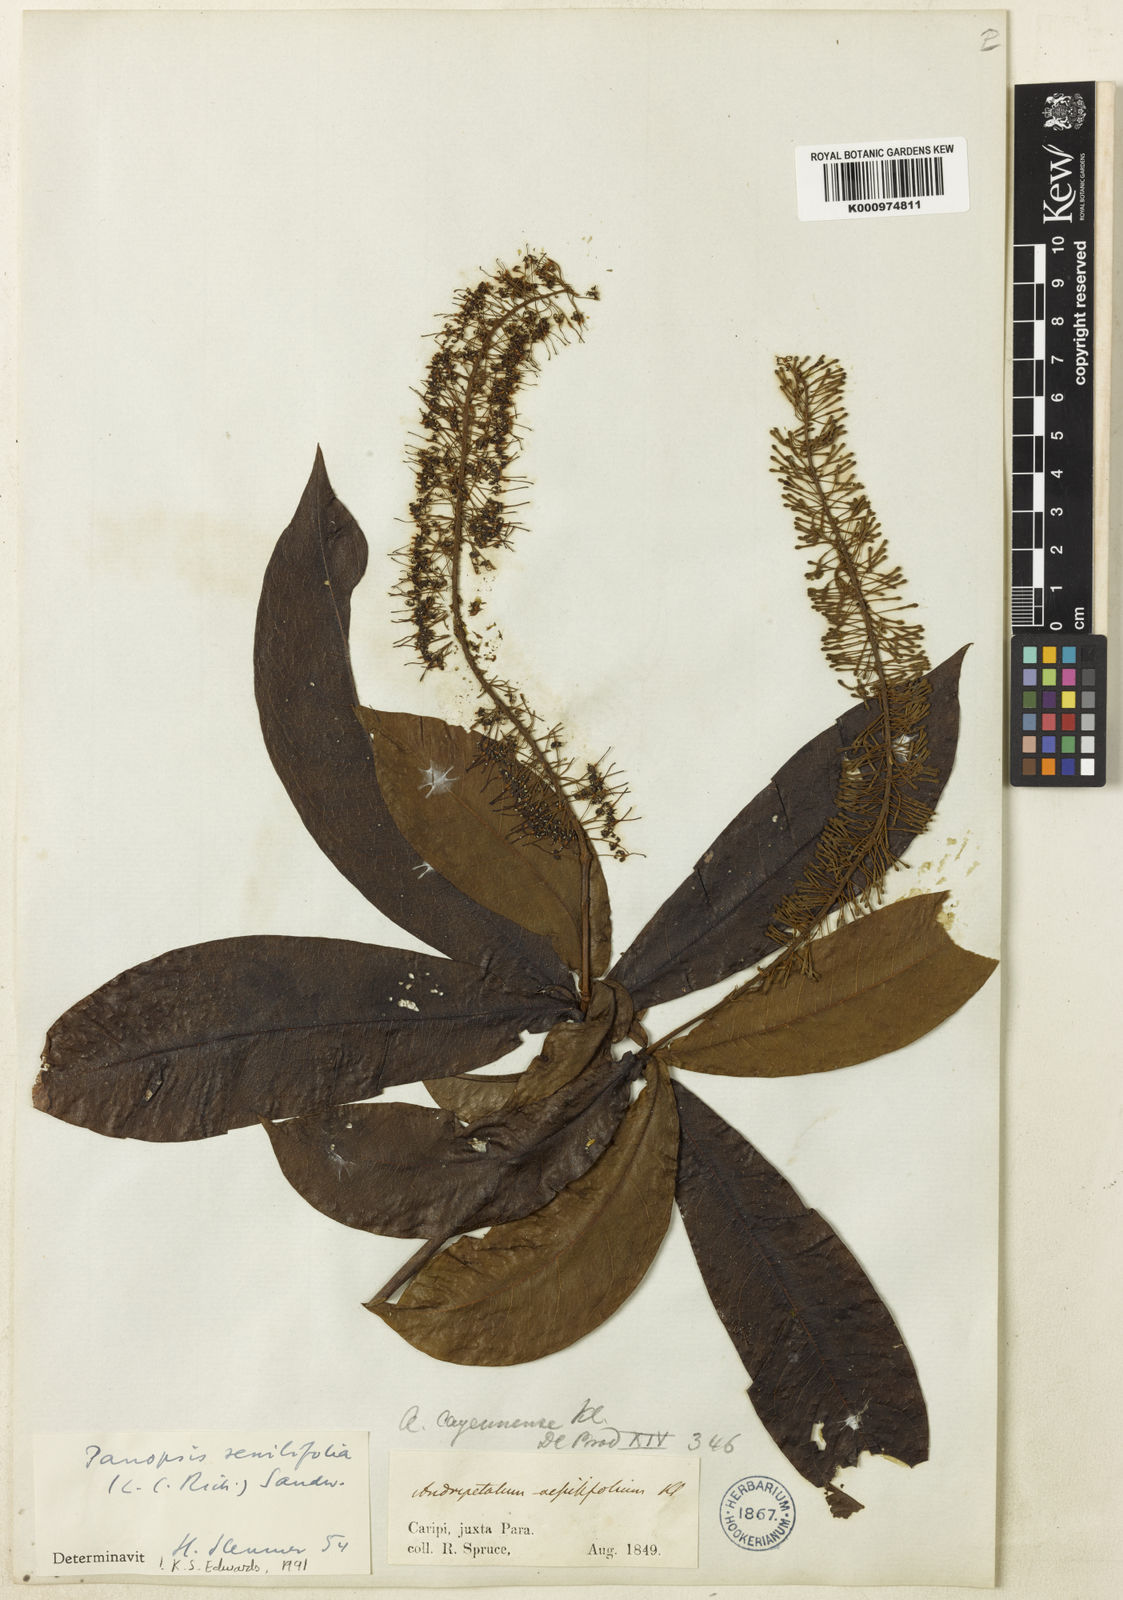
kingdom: Plantae
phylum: Tracheophyta
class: Magnoliopsida
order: Proteales
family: Proteaceae
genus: Panopsis
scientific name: Panopsis sessilifolia
